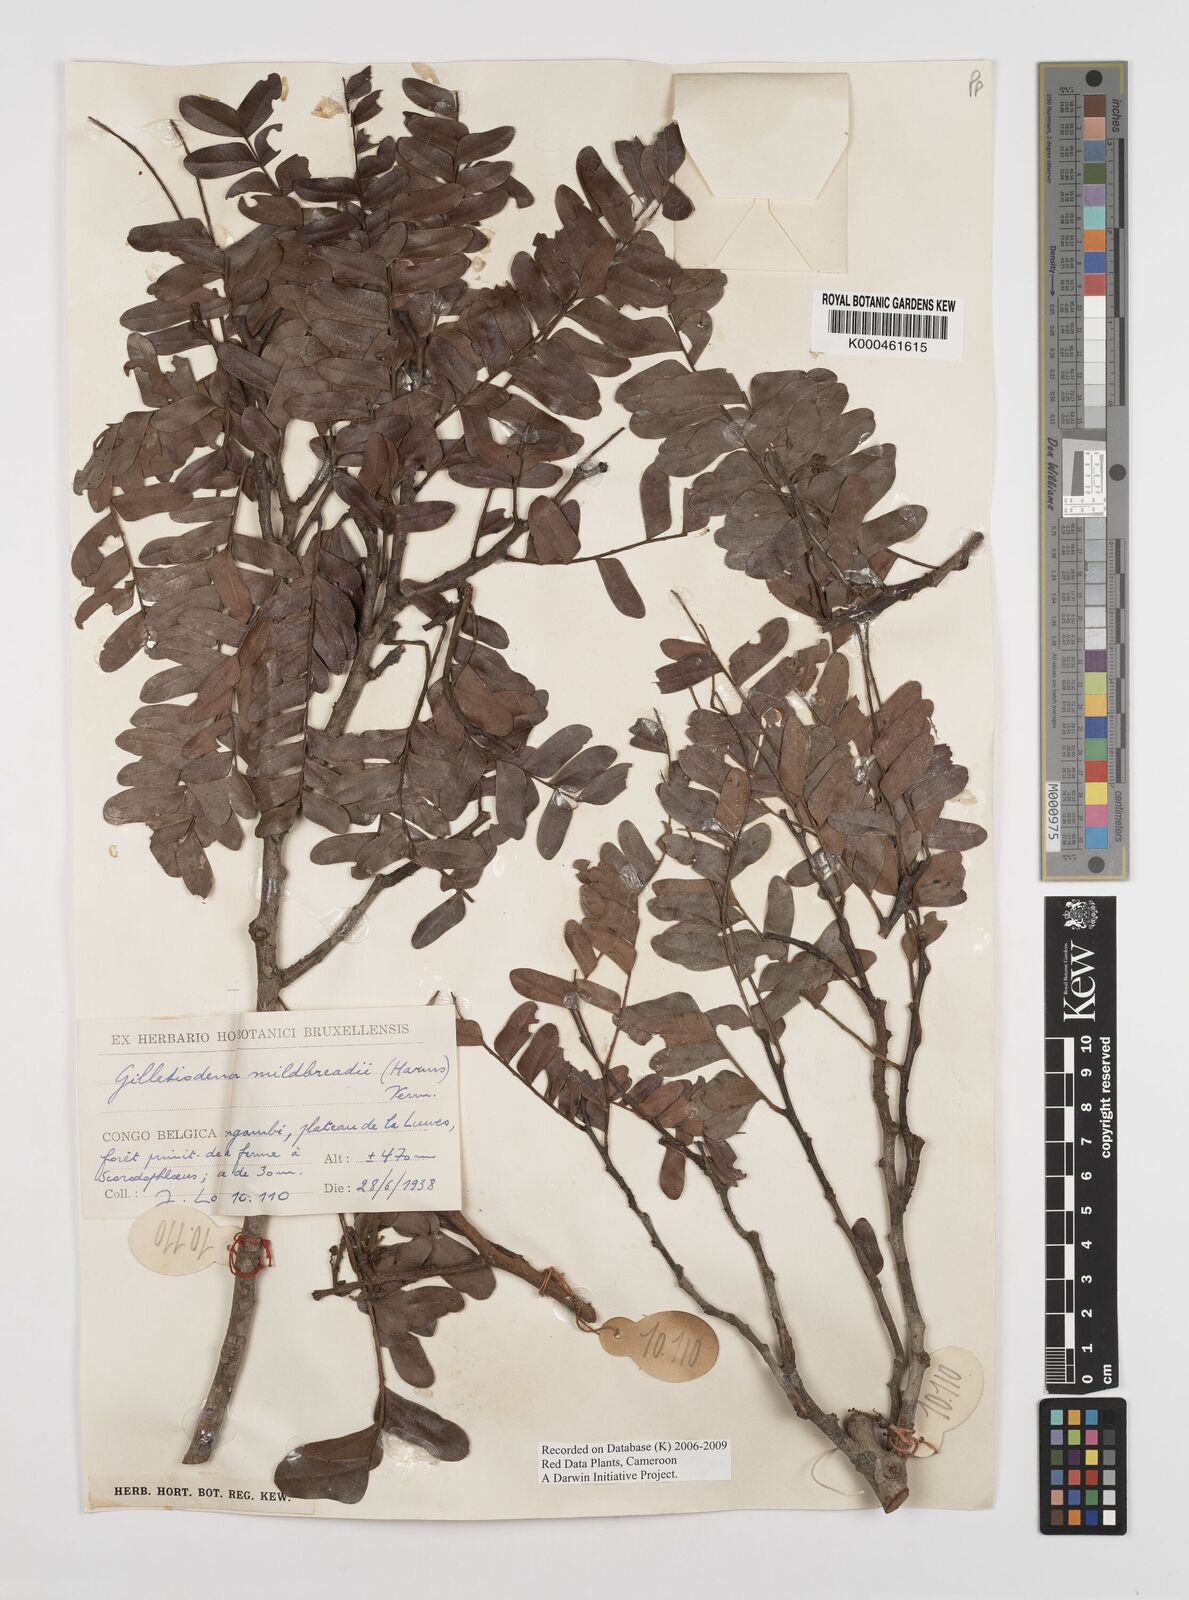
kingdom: Plantae
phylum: Tracheophyta
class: Magnoliopsida
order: Fabales
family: Fabaceae
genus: Gilletiodendron
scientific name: Gilletiodendron mildbraedii
